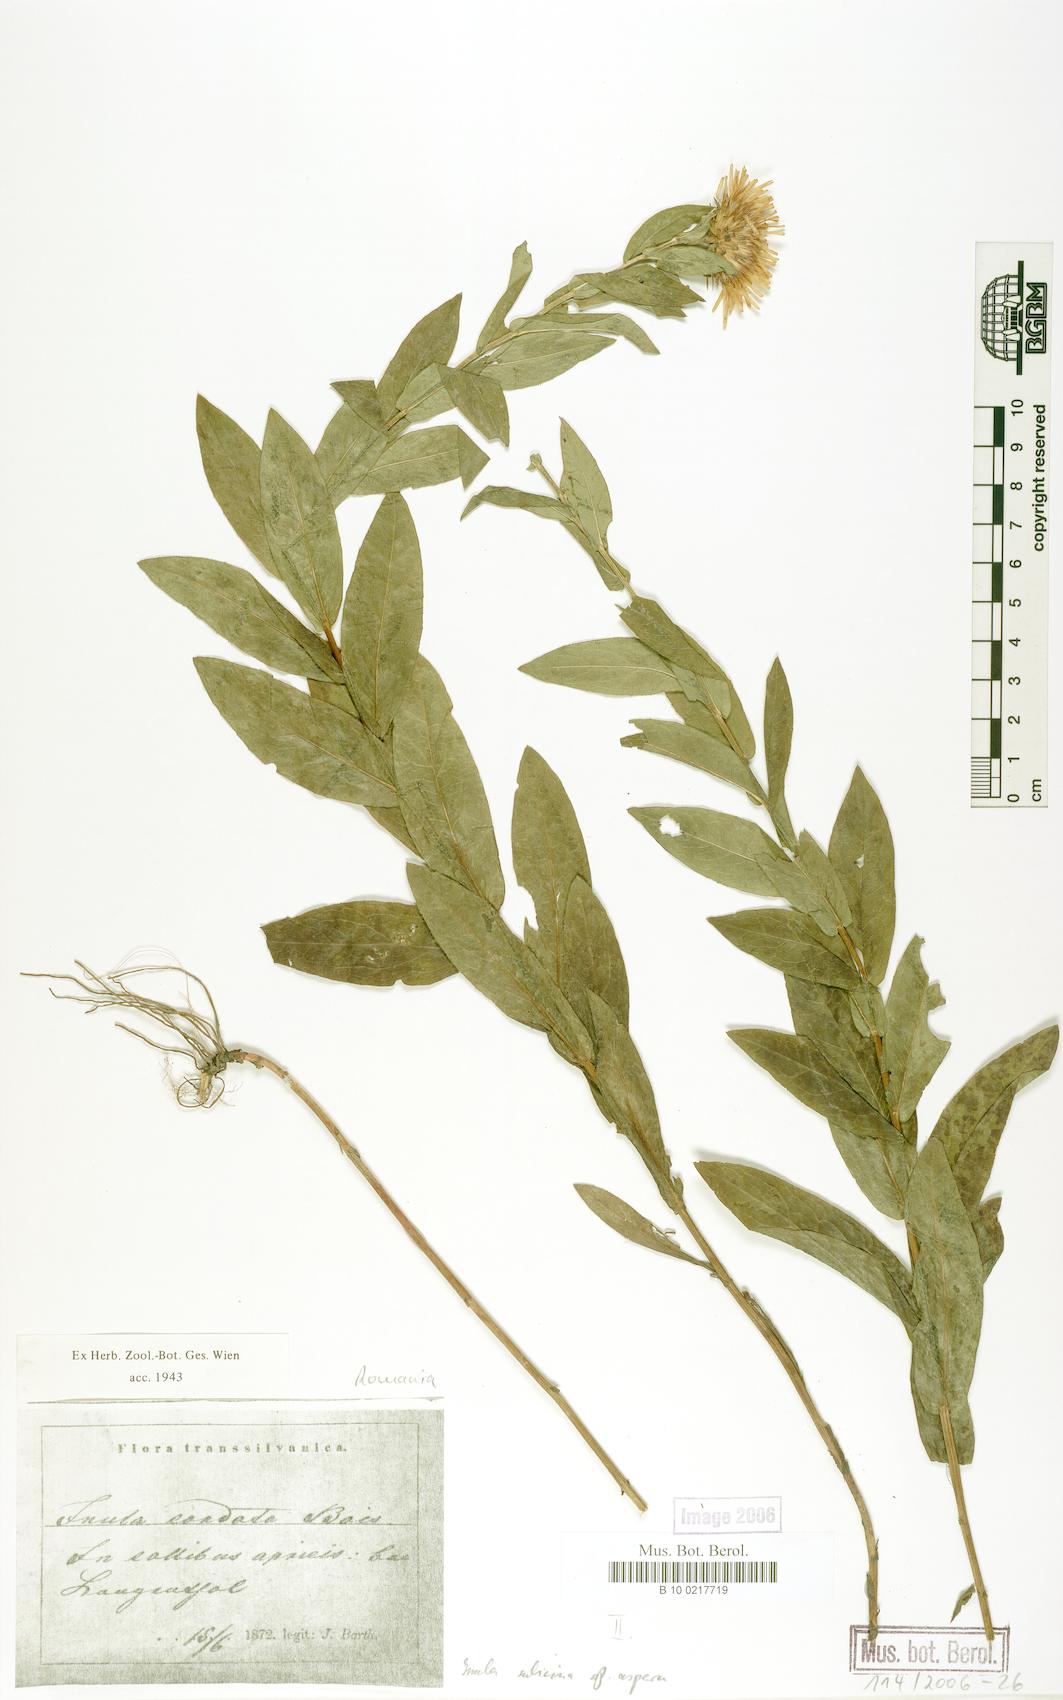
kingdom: Plantae
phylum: Tracheophyta
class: Magnoliopsida
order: Asterales
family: Asteraceae
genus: Pentanema
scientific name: Pentanema asperum
